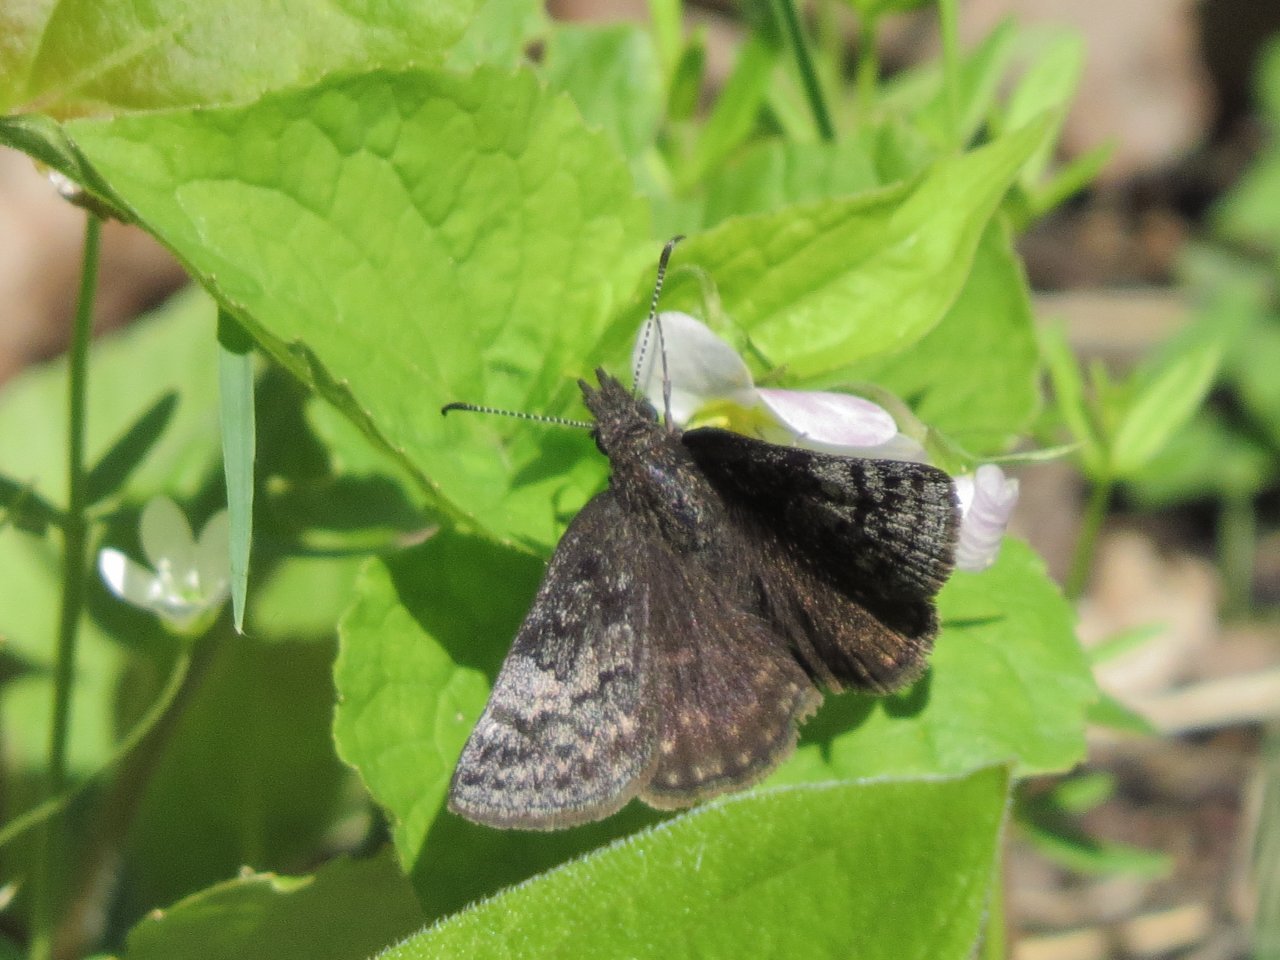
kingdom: Animalia
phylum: Arthropoda
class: Insecta
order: Lepidoptera
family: Hesperiidae
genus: Erynnis
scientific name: Erynnis icelus
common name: Dreamy Duskywing
